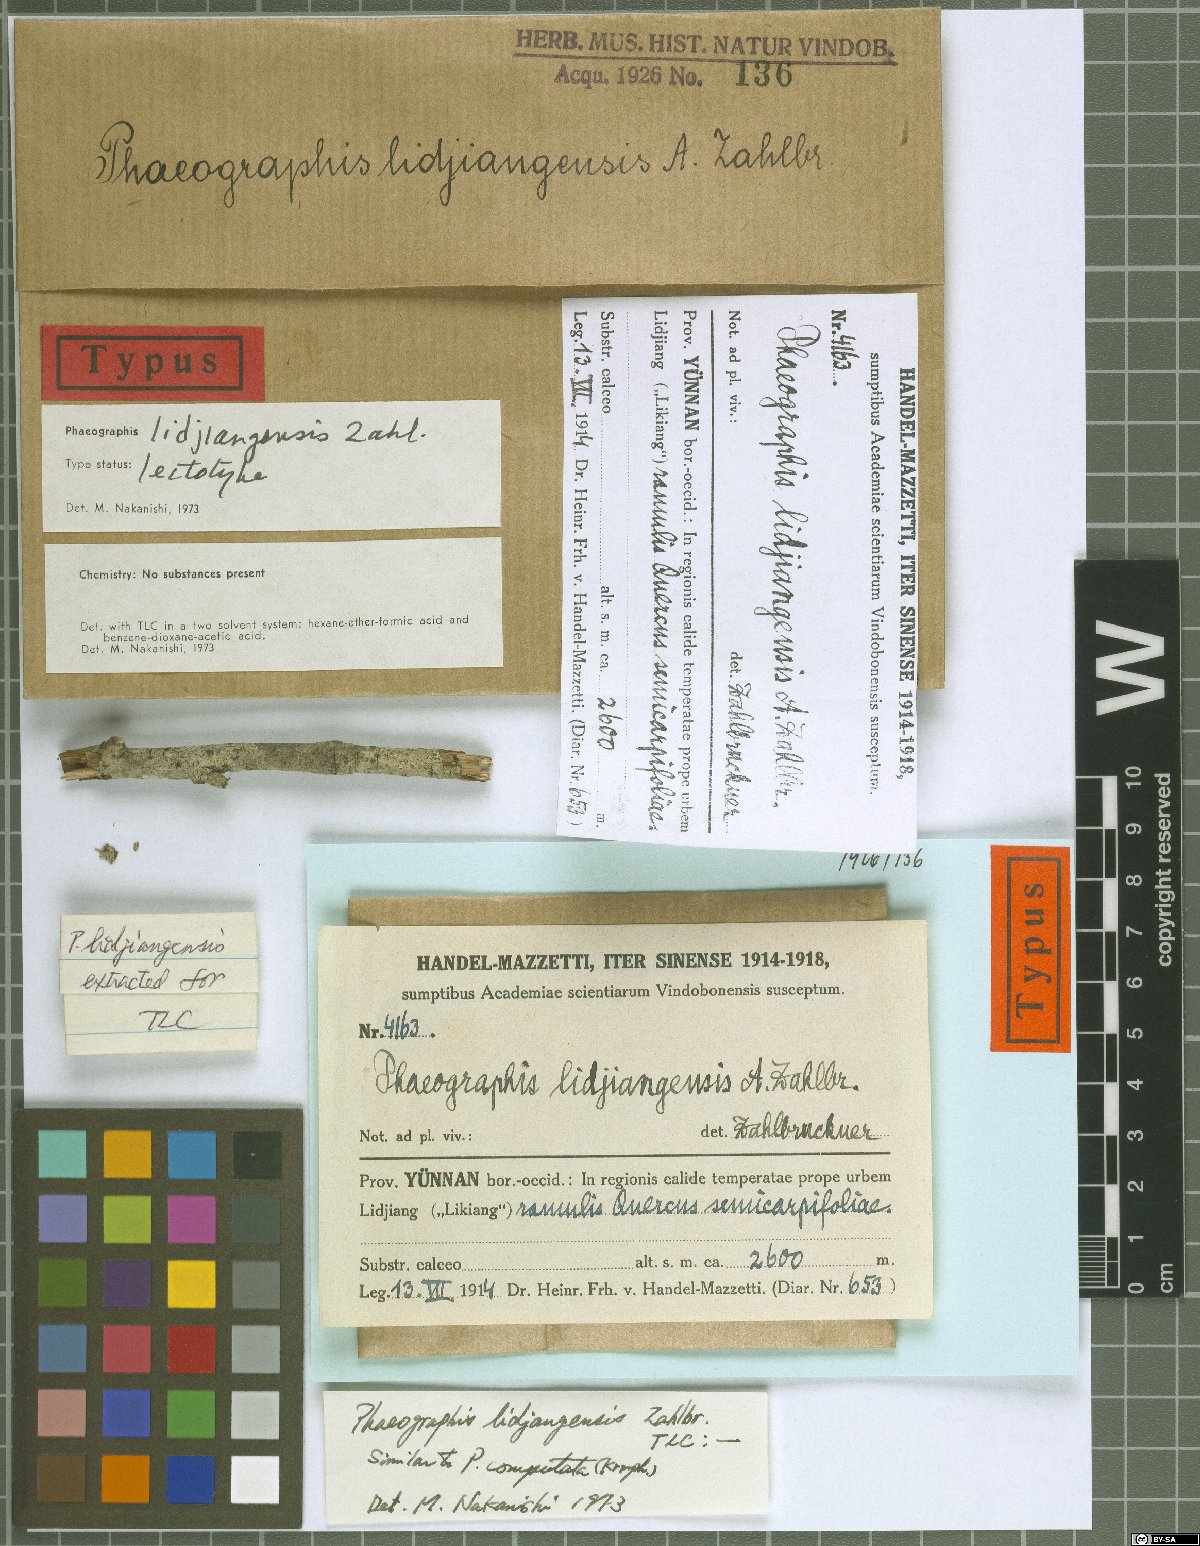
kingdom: Fungi
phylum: Ascomycota
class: Lecanoromycetes
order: Ostropales
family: Graphidaceae
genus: Phaeographis
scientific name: Phaeographis
